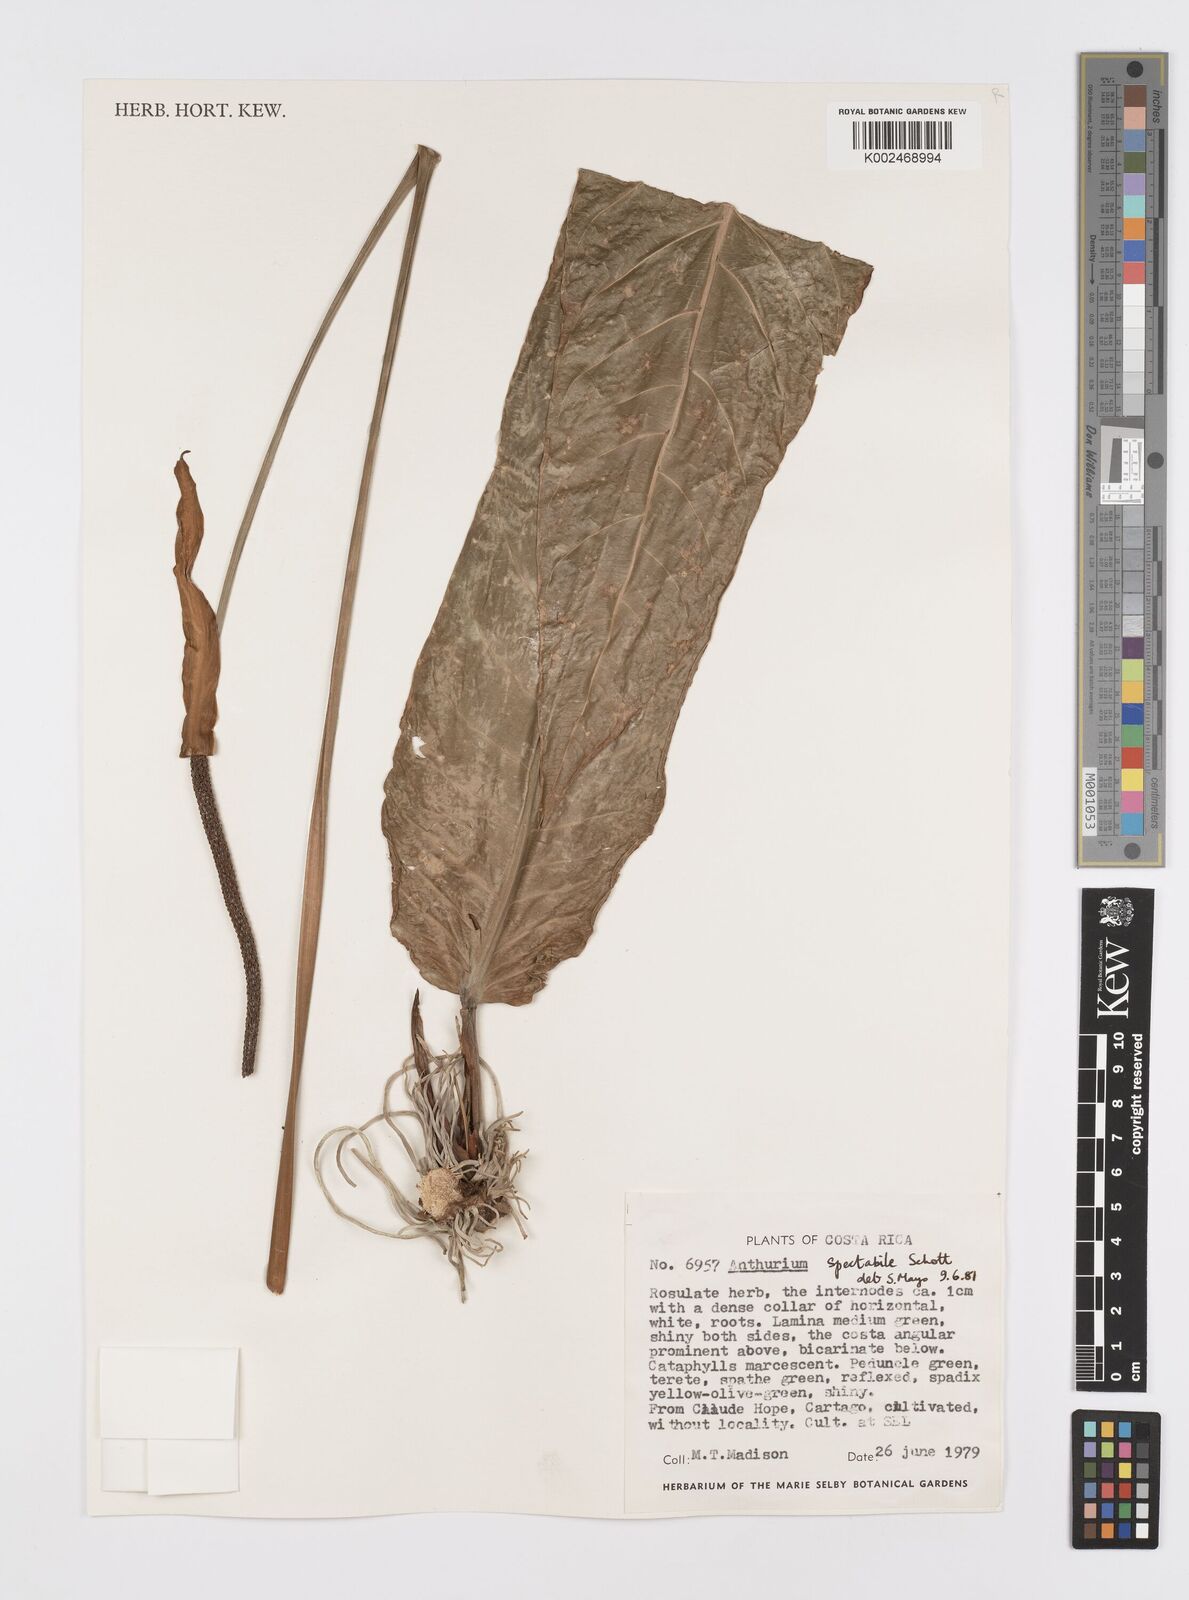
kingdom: Plantae
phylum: Tracheophyta
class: Liliopsida
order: Alismatales
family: Araceae
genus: Anthurium
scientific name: Anthurium spectabile
